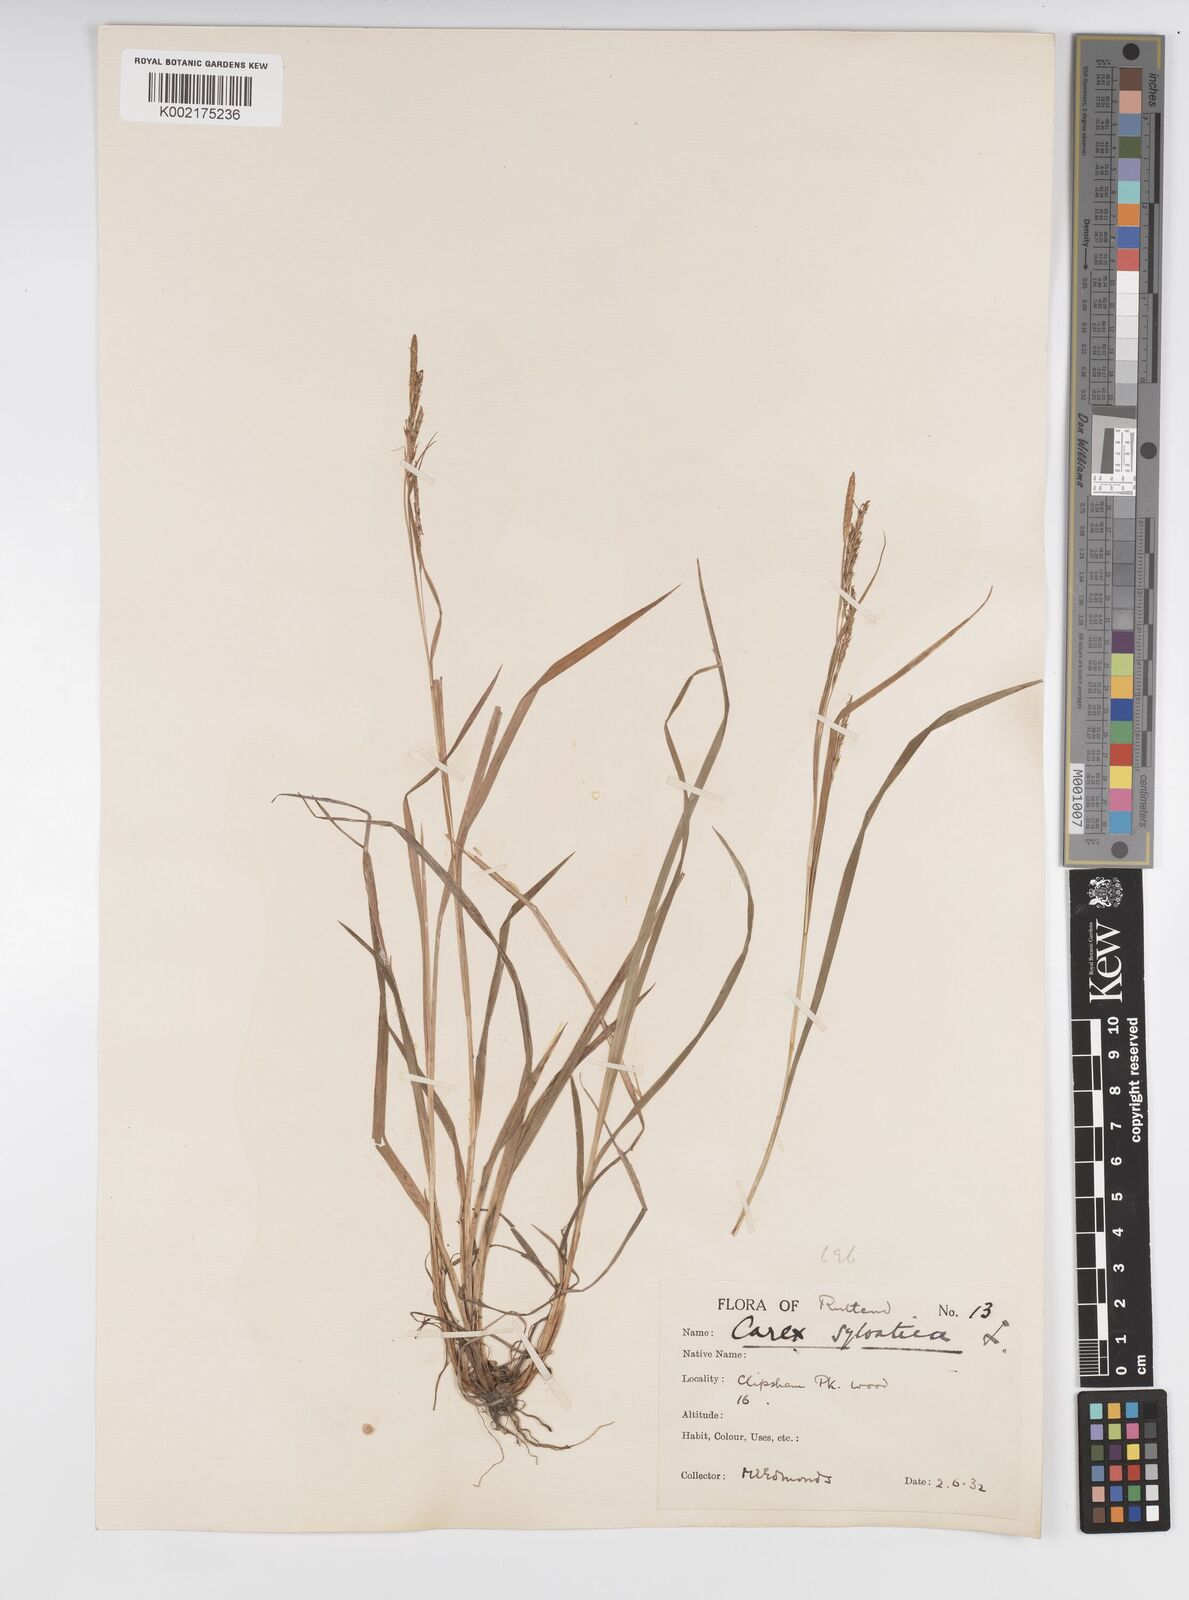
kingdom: Plantae
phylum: Tracheophyta
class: Liliopsida
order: Poales
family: Cyperaceae
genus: Carex
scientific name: Carex sylvatica
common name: Wood-sedge
